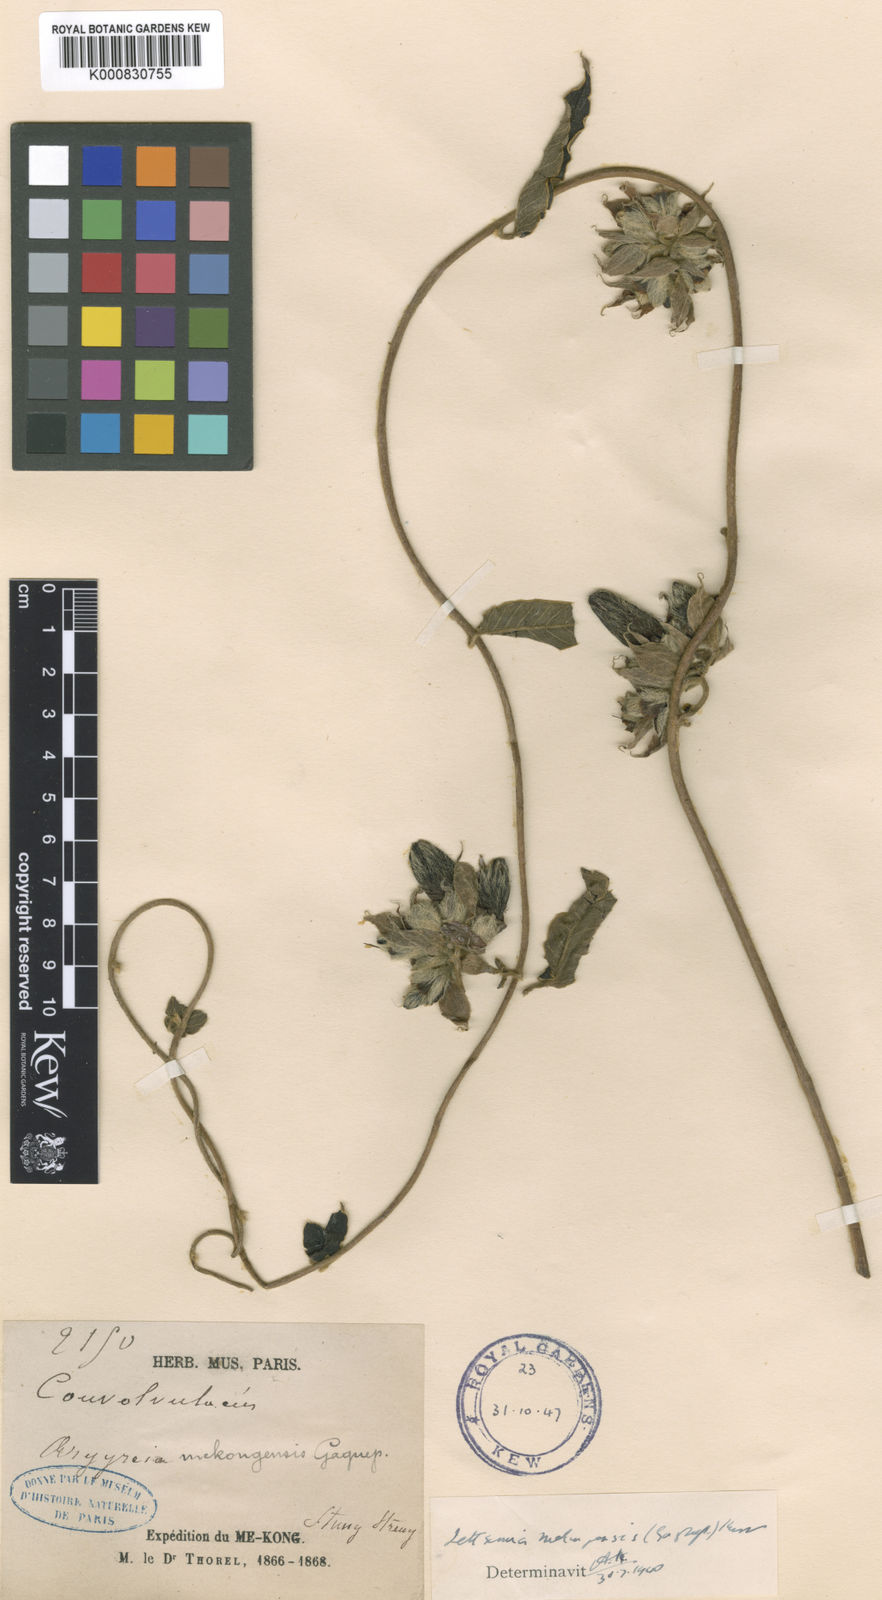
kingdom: Plantae
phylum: Tracheophyta
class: Magnoliopsida
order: Solanales
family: Convolvulaceae
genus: Argyreia
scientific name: Argyreia mekongensis
